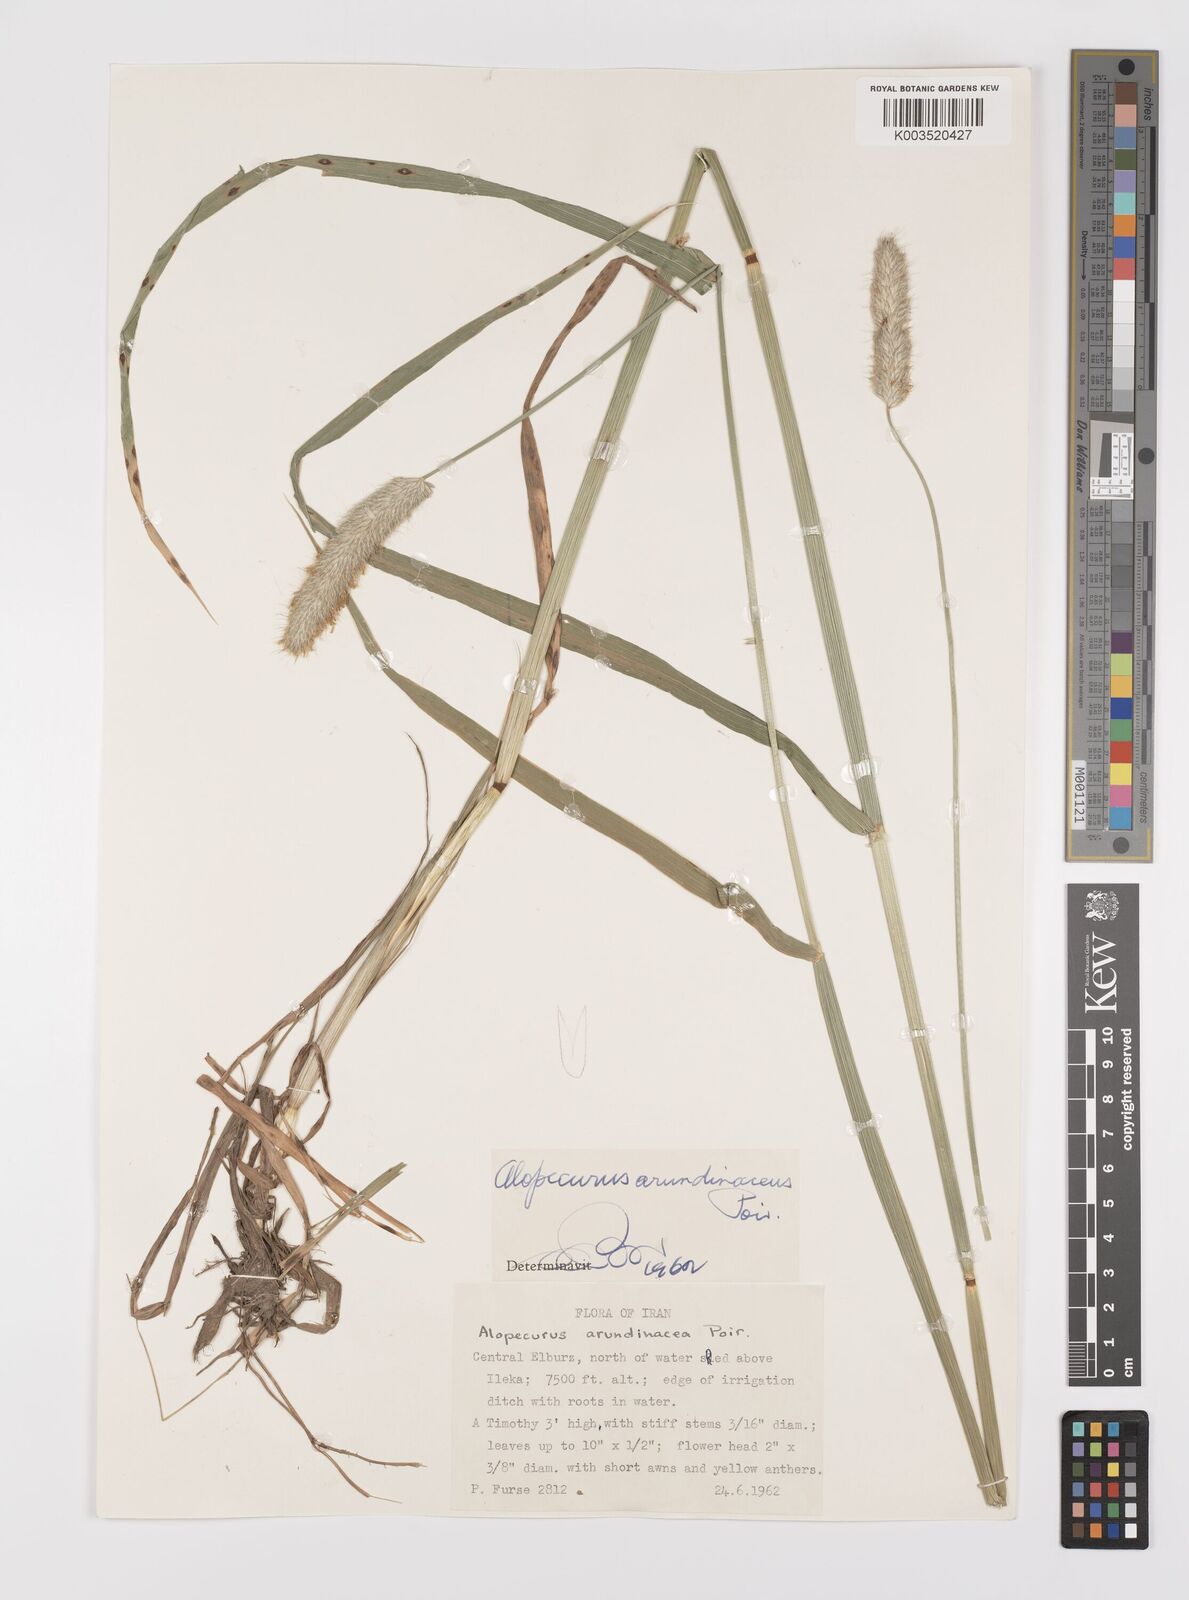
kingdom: Plantae
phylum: Tracheophyta
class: Liliopsida
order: Poales
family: Poaceae
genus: Alopecurus
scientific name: Alopecurus arundinaceus
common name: Creeping meadow foxtail
